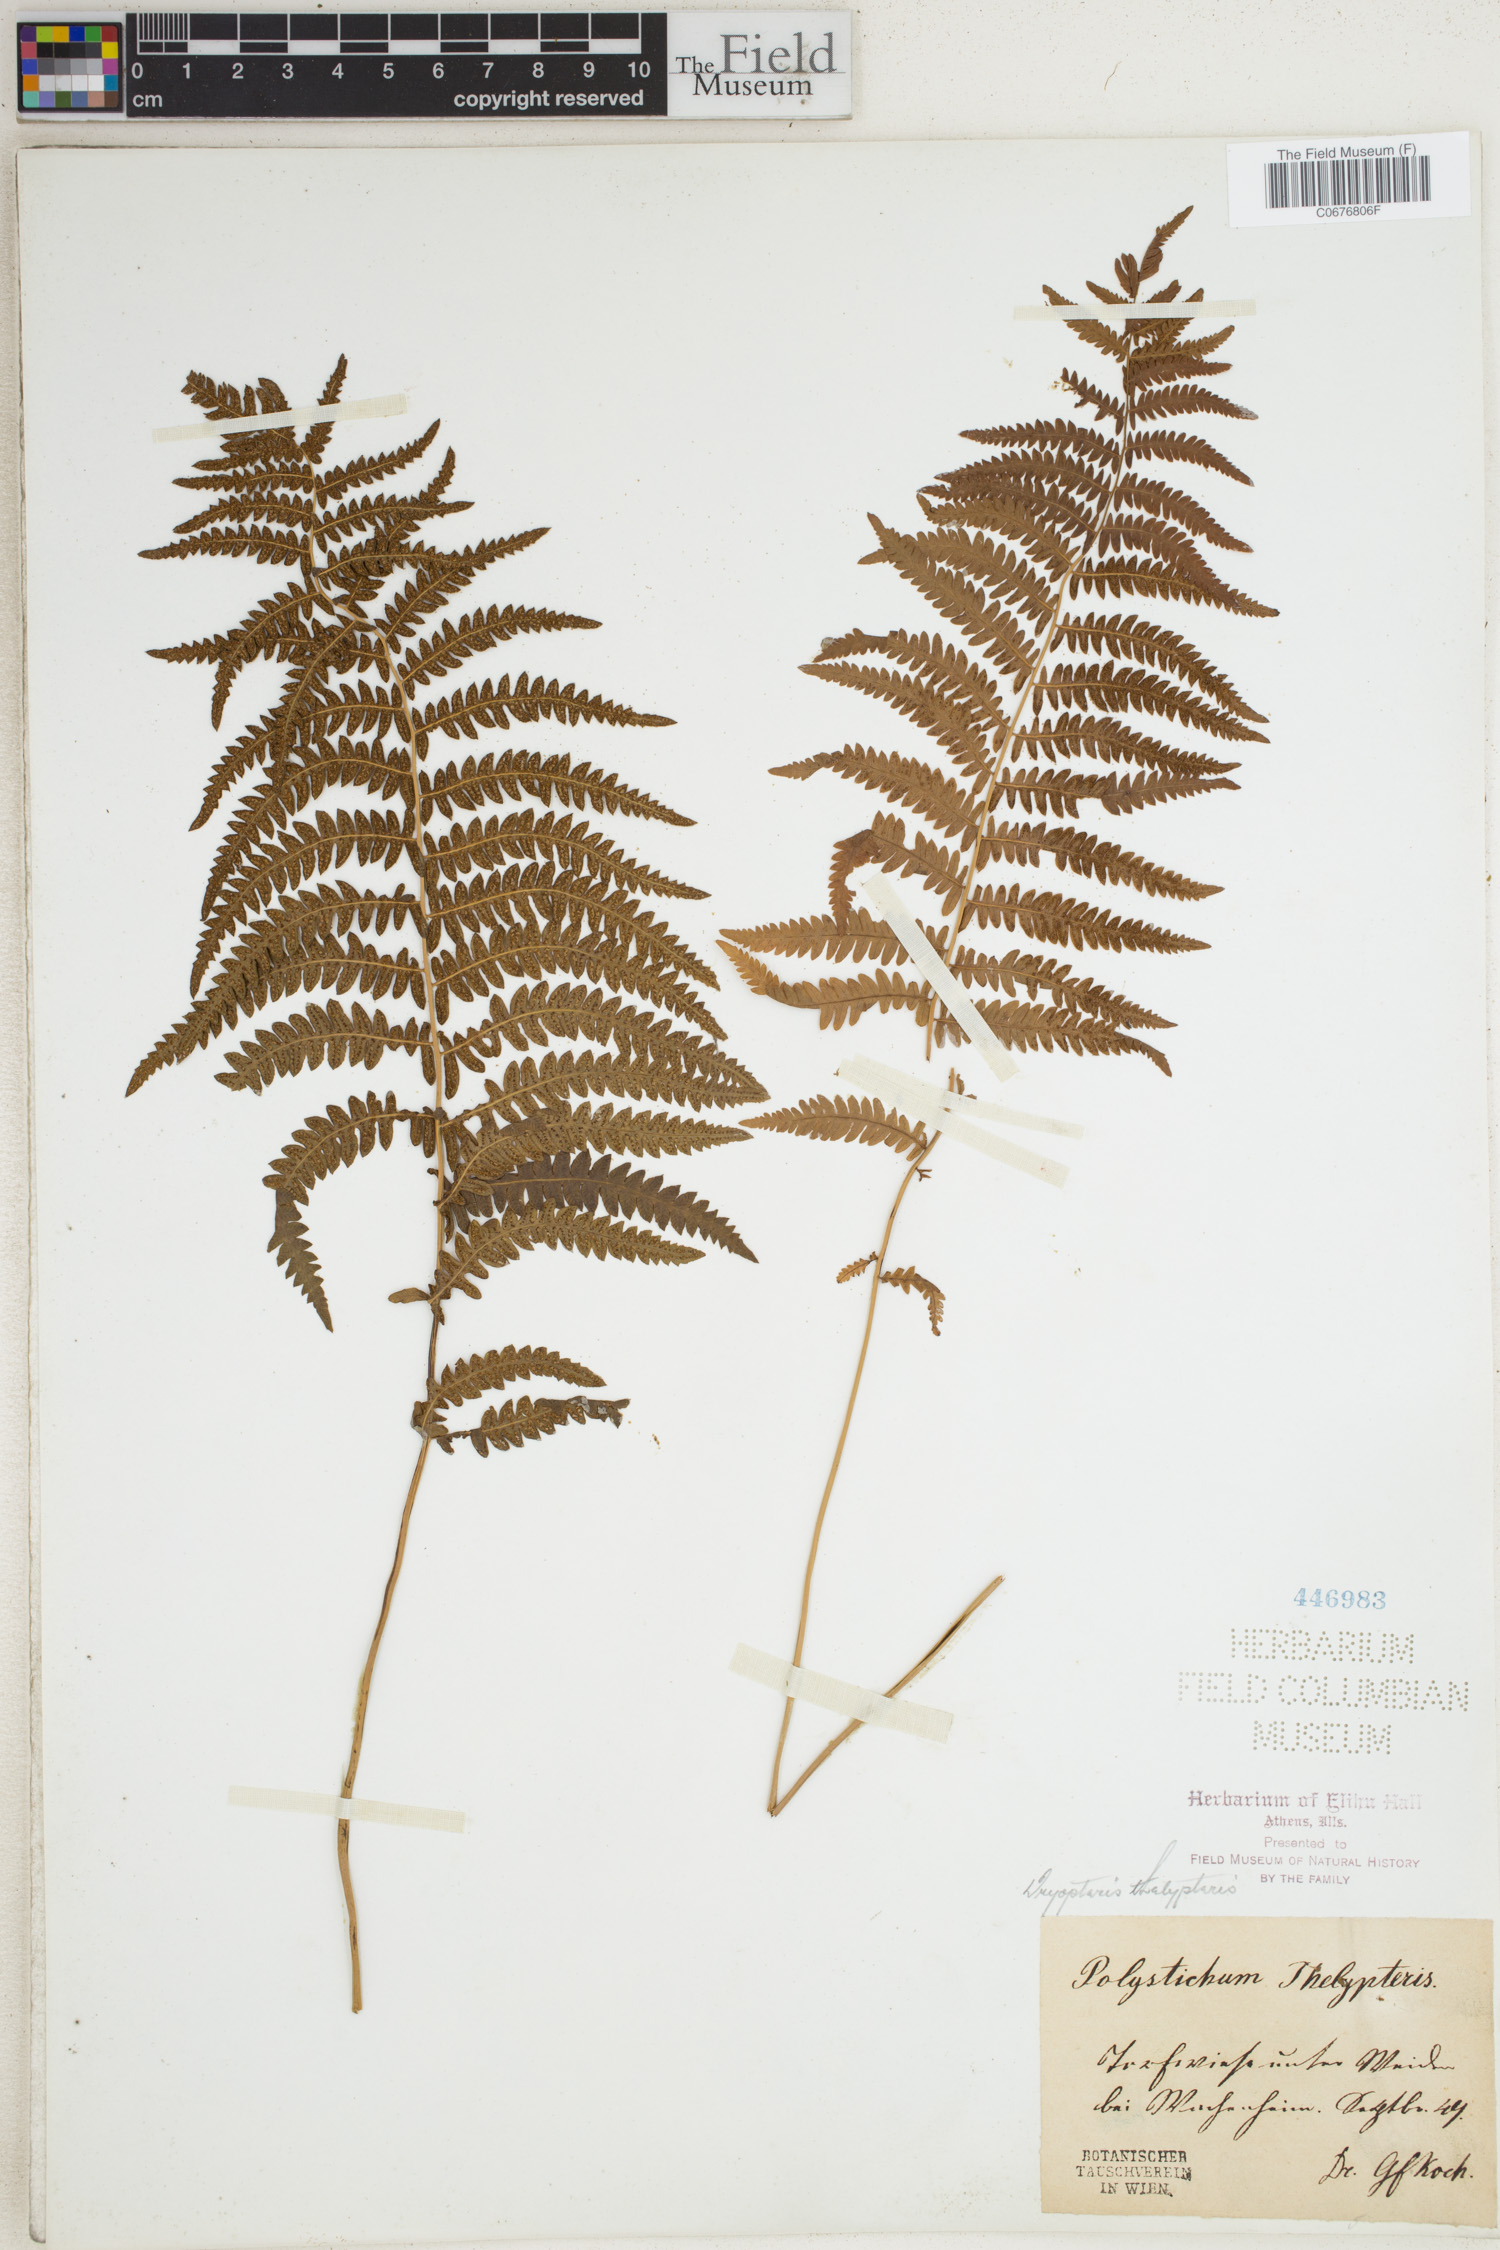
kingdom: Plantae
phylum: Tracheophyta
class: Polypodiopsida
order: Polypodiales
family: Thelypteridaceae
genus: Thelypteris
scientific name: Thelypteris palustris
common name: Marsh fern
